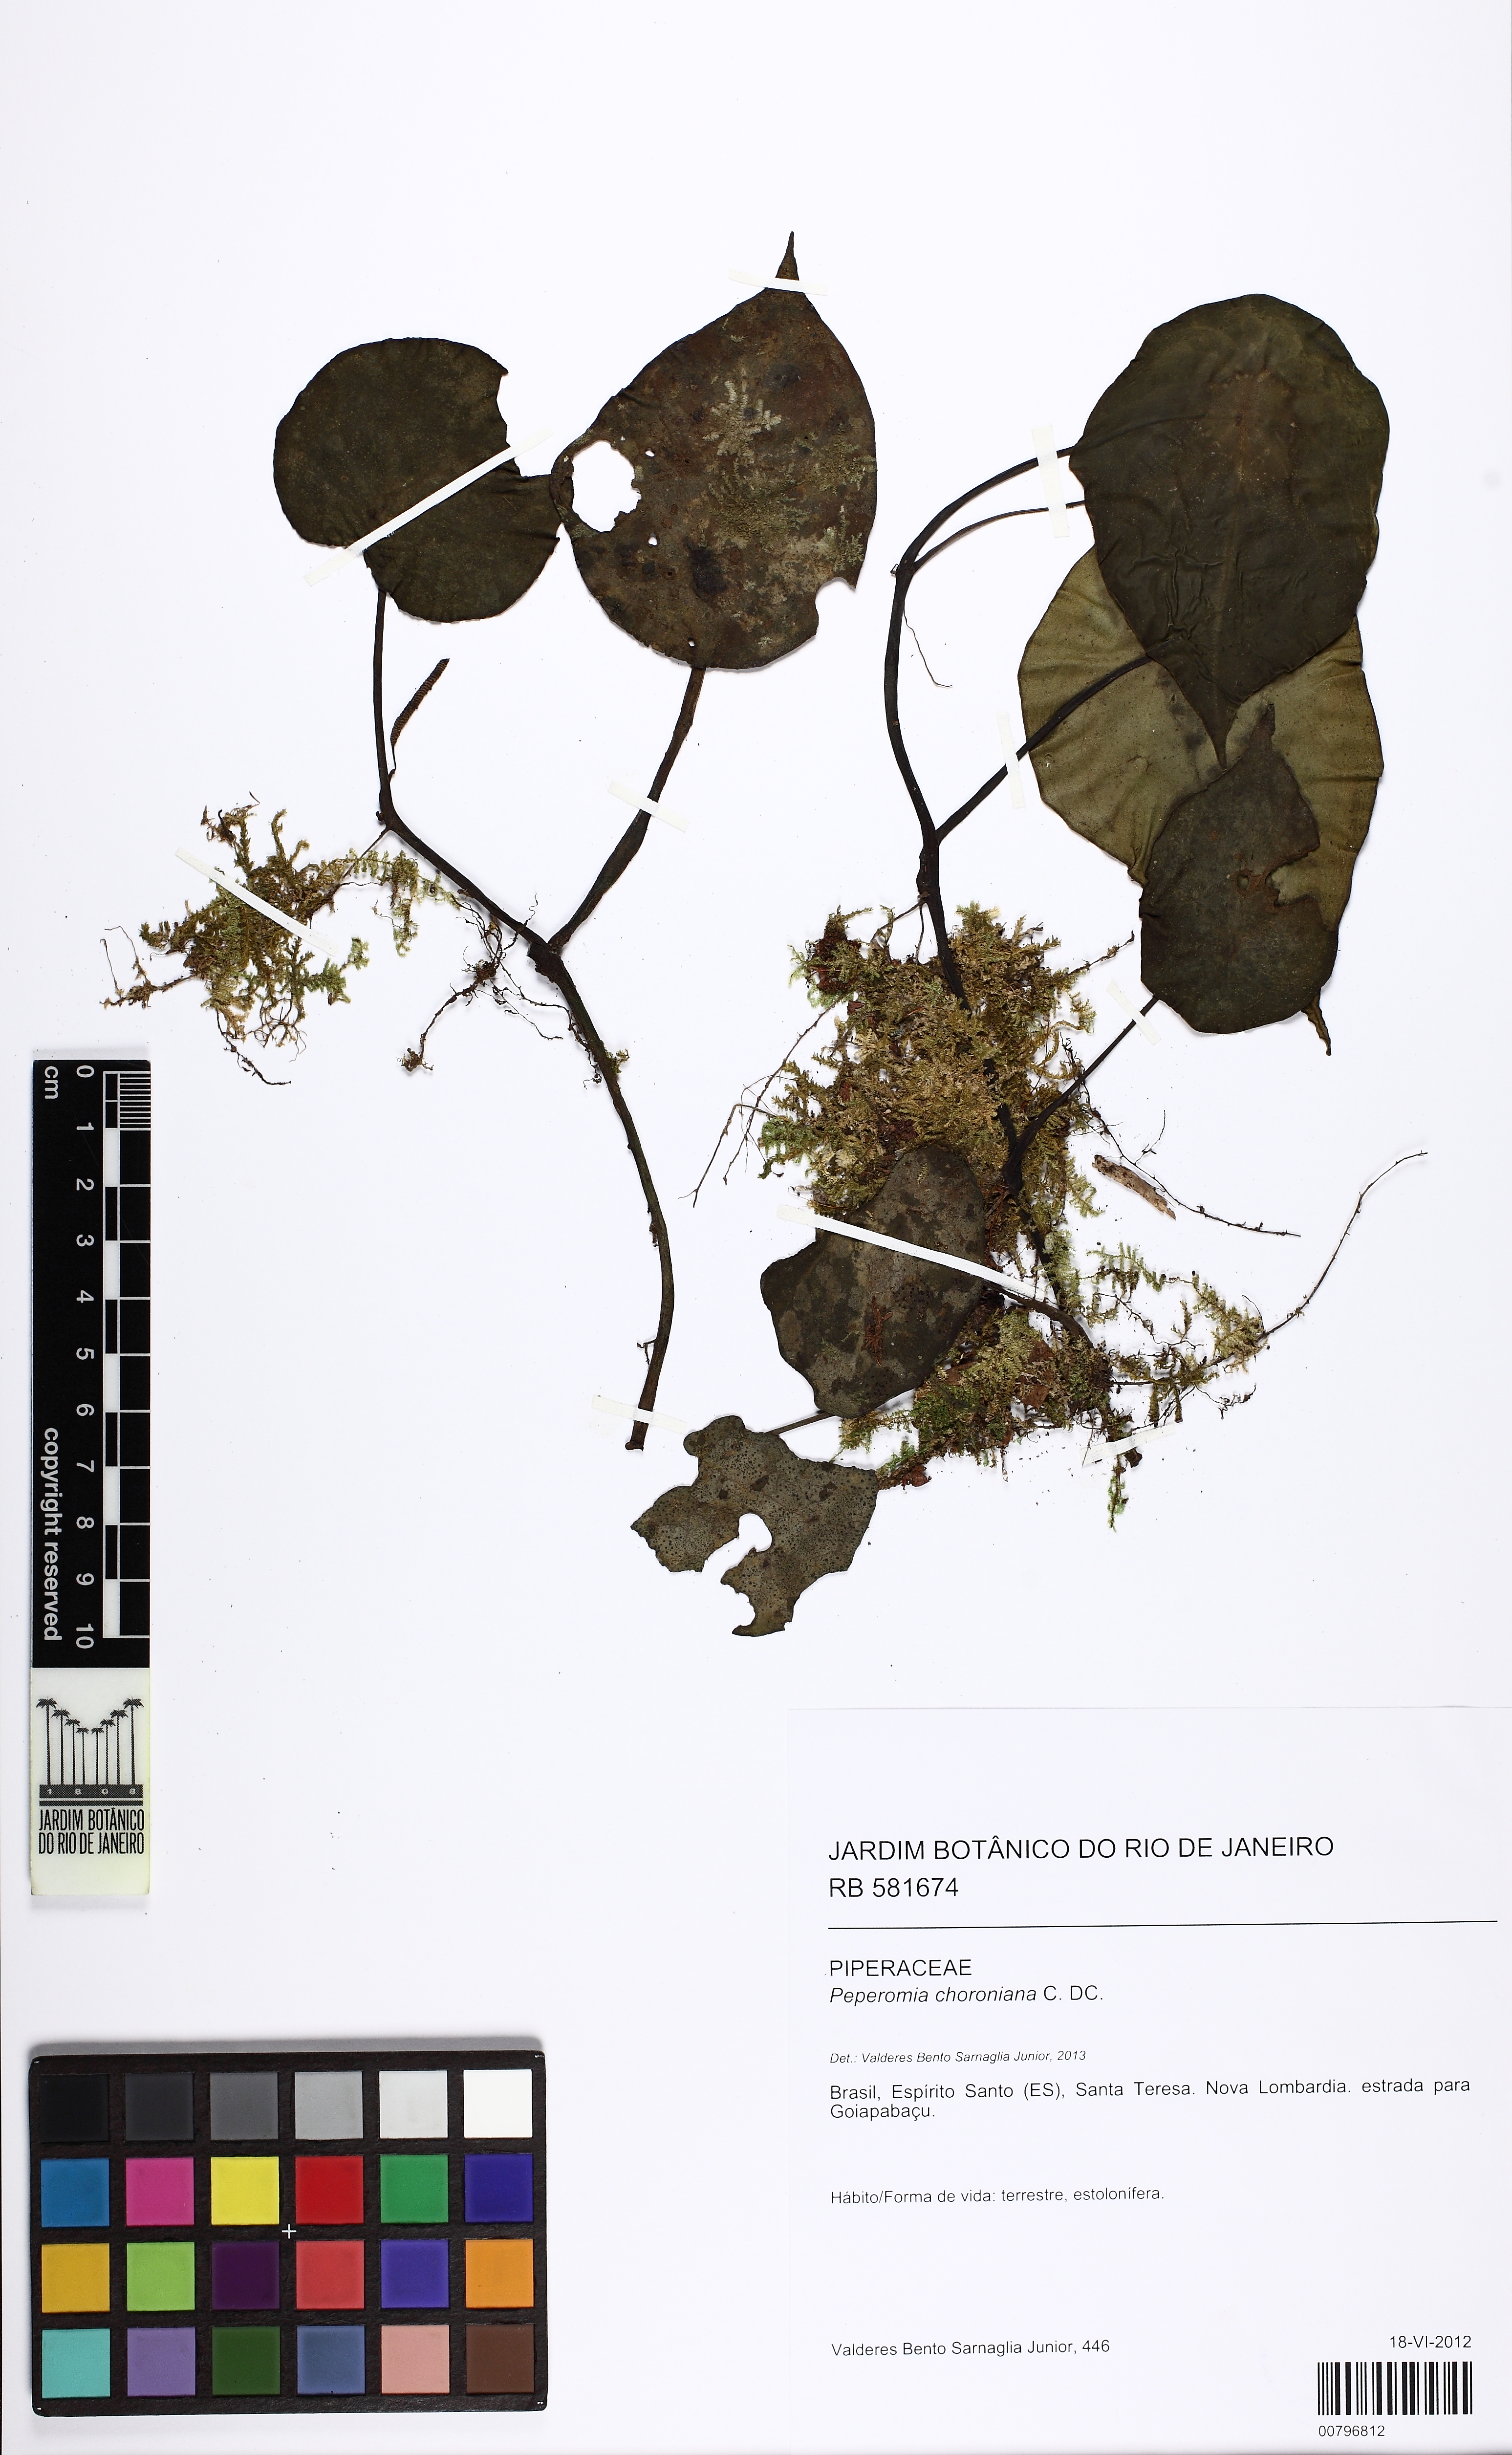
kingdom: Plantae
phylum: Tracheophyta
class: Magnoliopsida
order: Piperales
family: Piperaceae
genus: Peperomia
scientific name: Peperomia choroniana
